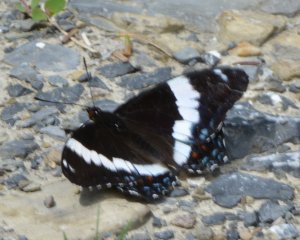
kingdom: Animalia
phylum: Arthropoda
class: Insecta
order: Lepidoptera
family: Nymphalidae
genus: Limenitis
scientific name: Limenitis arthemis
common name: Red-spotted Admiral
